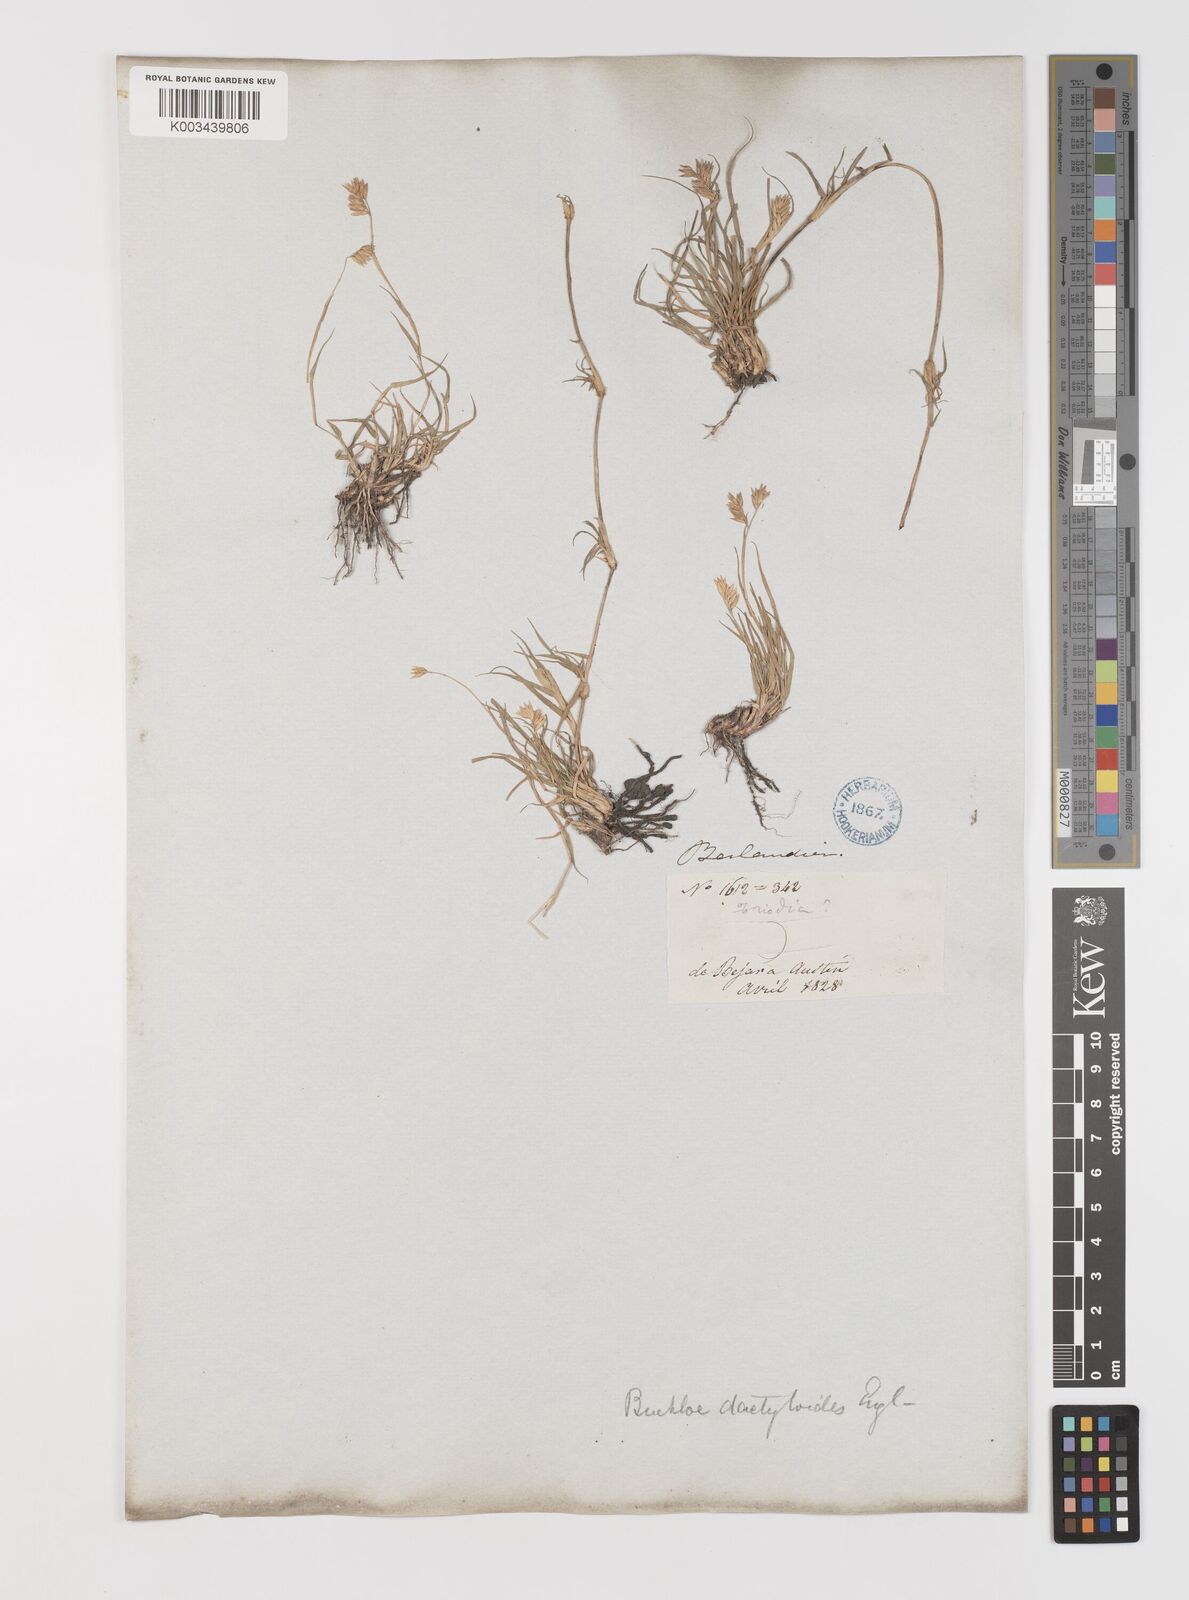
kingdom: Plantae
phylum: Tracheophyta
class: Liliopsida
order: Poales
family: Poaceae
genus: Bouteloua
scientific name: Bouteloua dactyloides
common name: Buffalo grass
